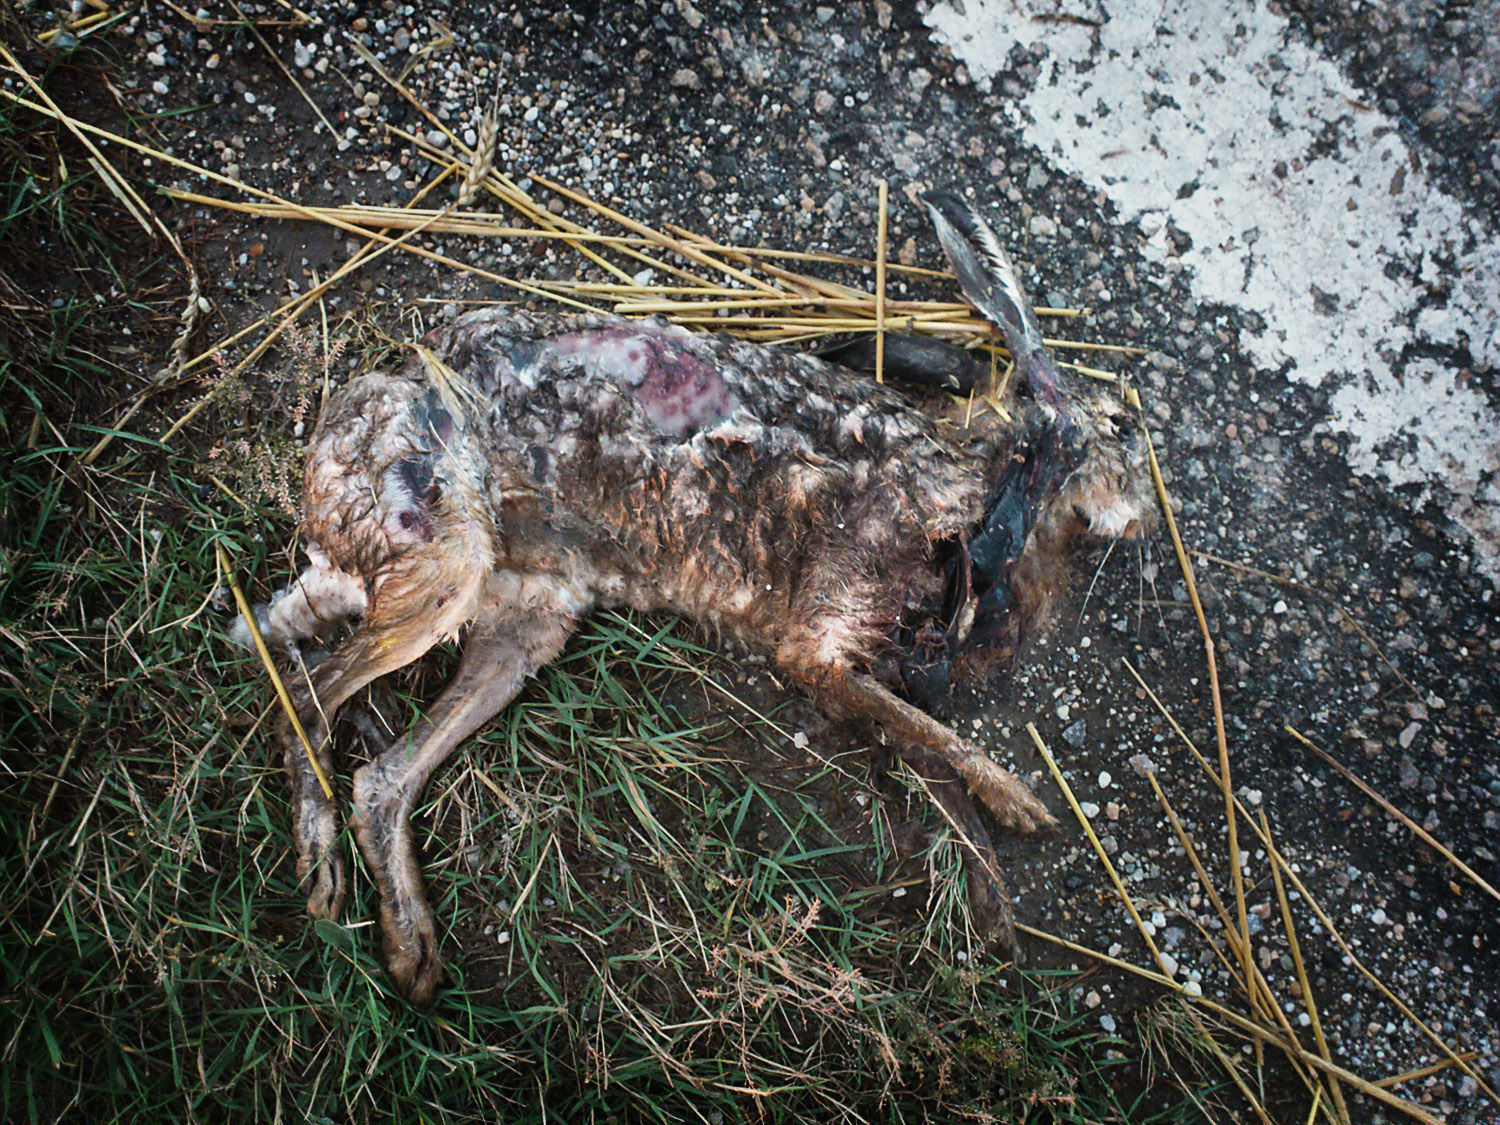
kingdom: Animalia
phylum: Chordata
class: Mammalia
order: Lagomorpha
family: Leporidae
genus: Lepus
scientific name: Lepus europaeus
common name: European hare
